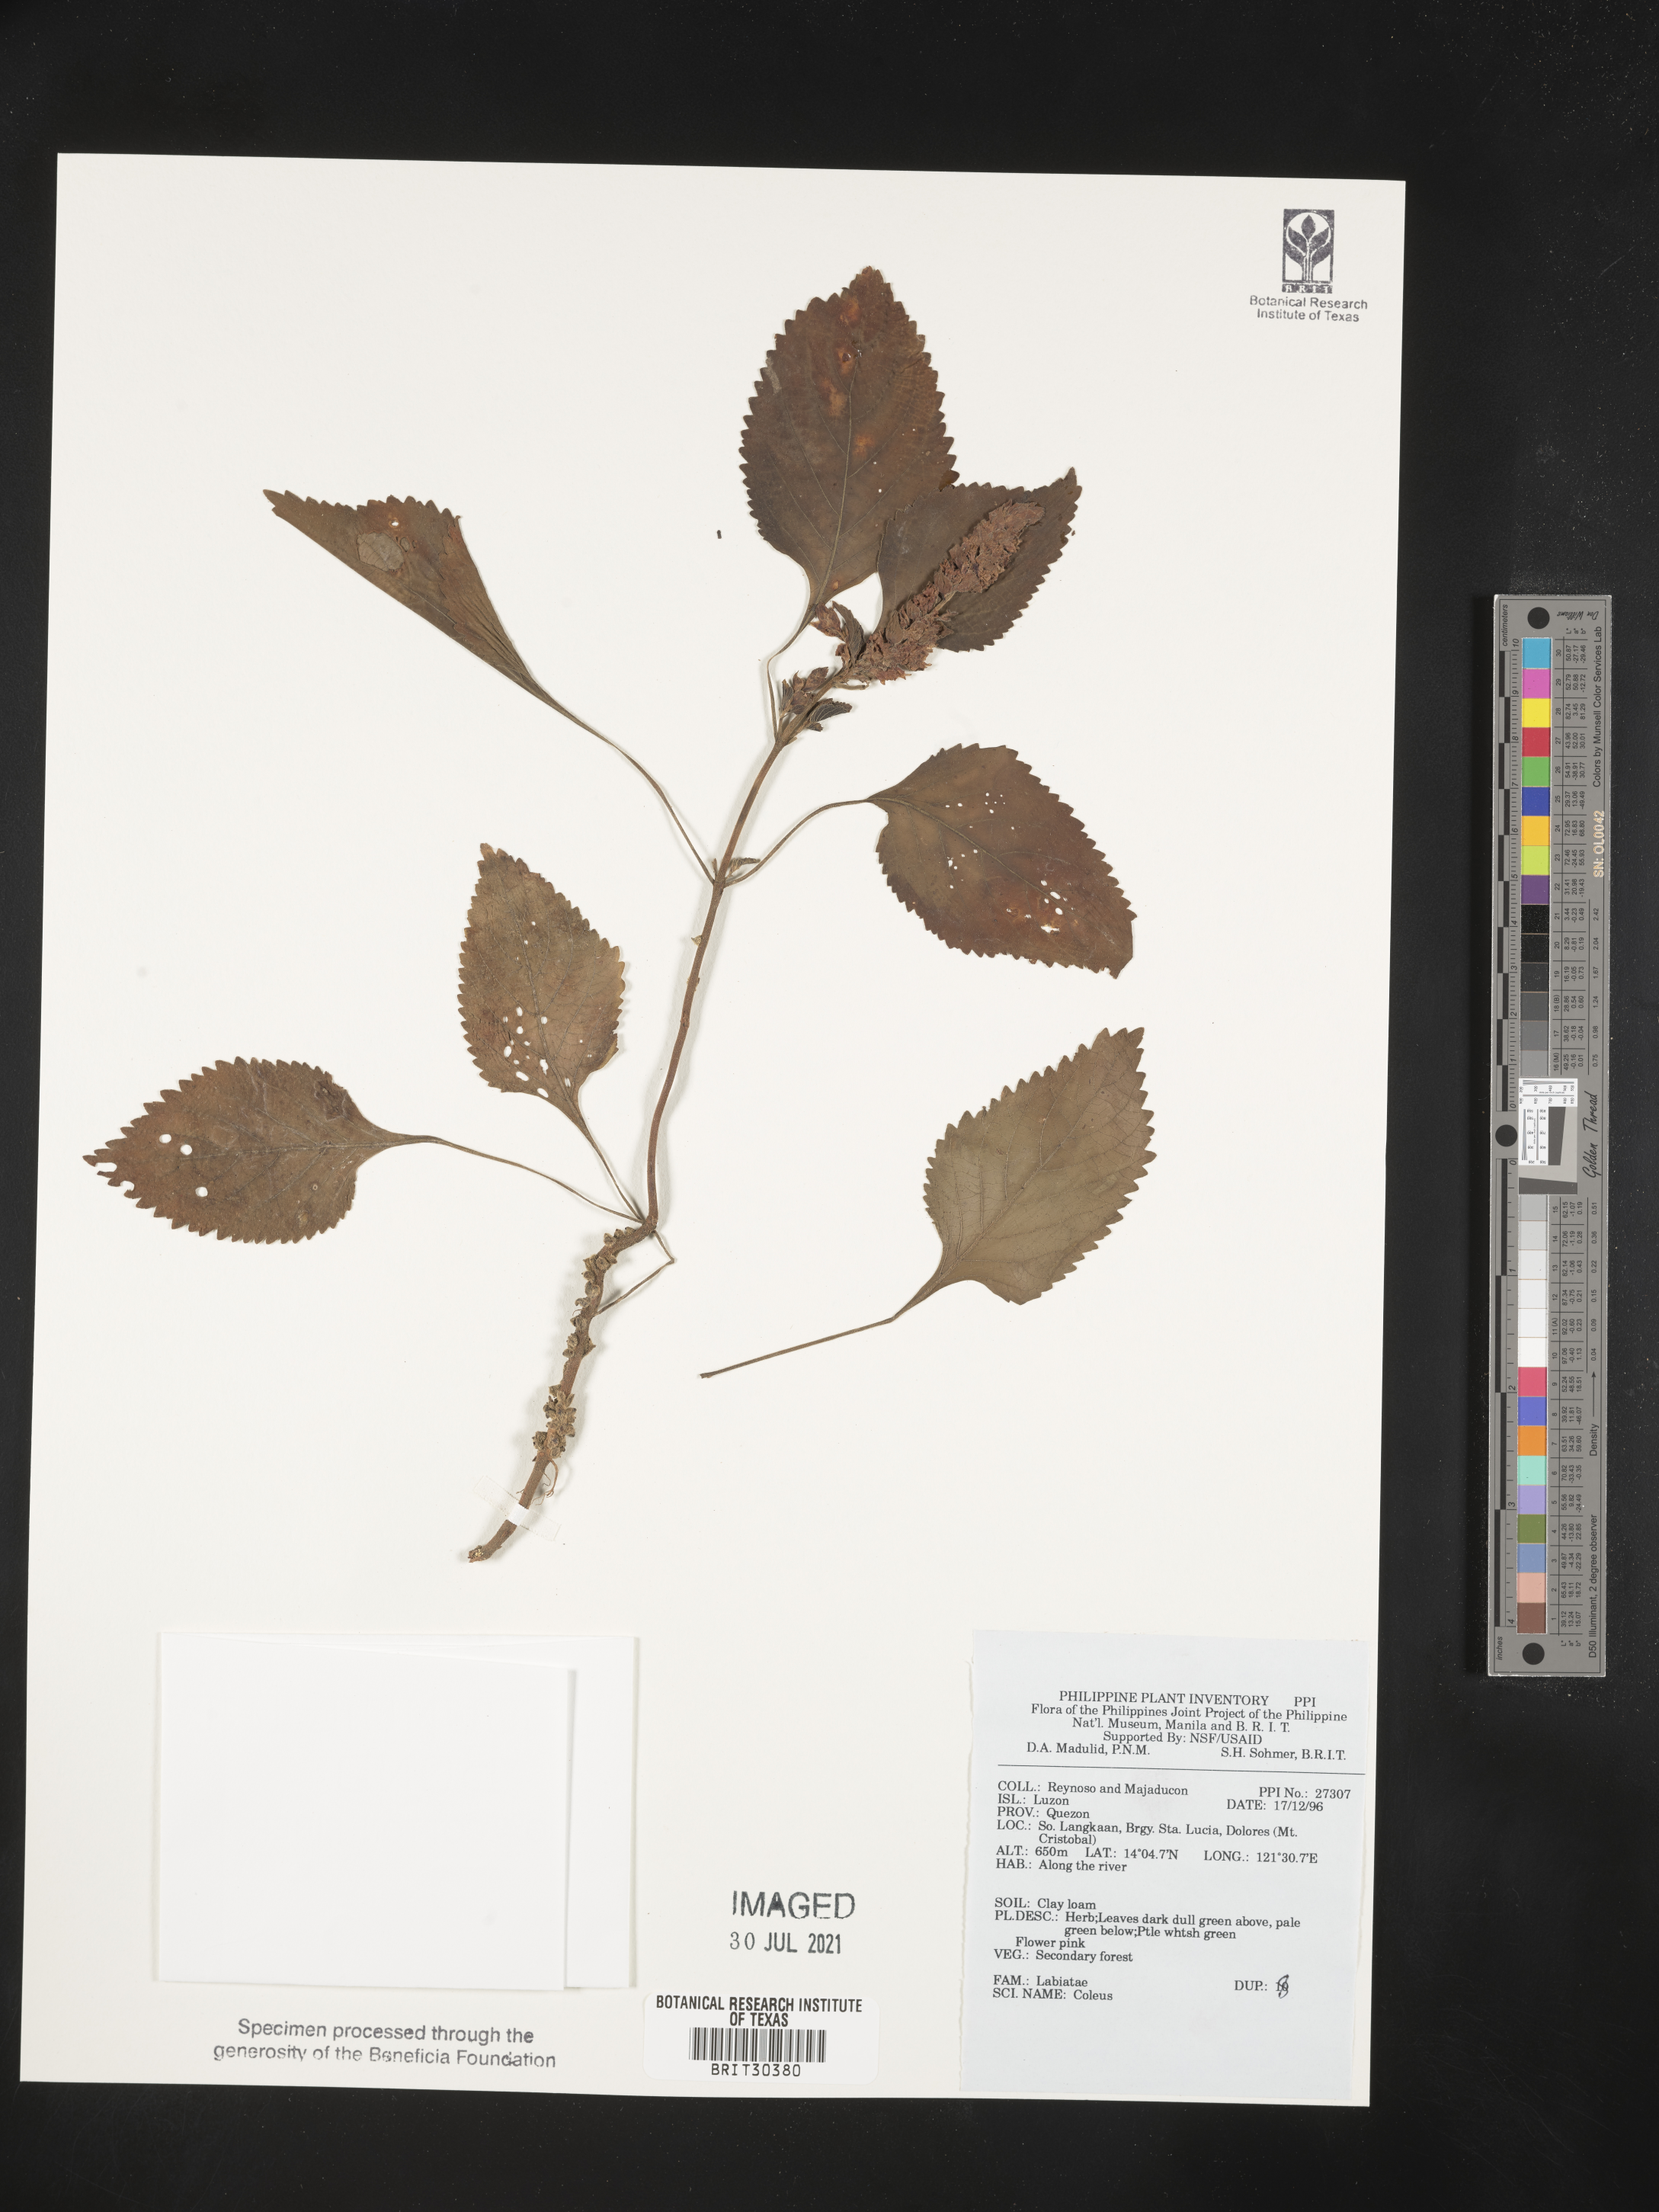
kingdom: Plantae
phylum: Tracheophyta
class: Magnoliopsida
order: Lamiales
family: Lamiaceae
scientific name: Lamiaceae
